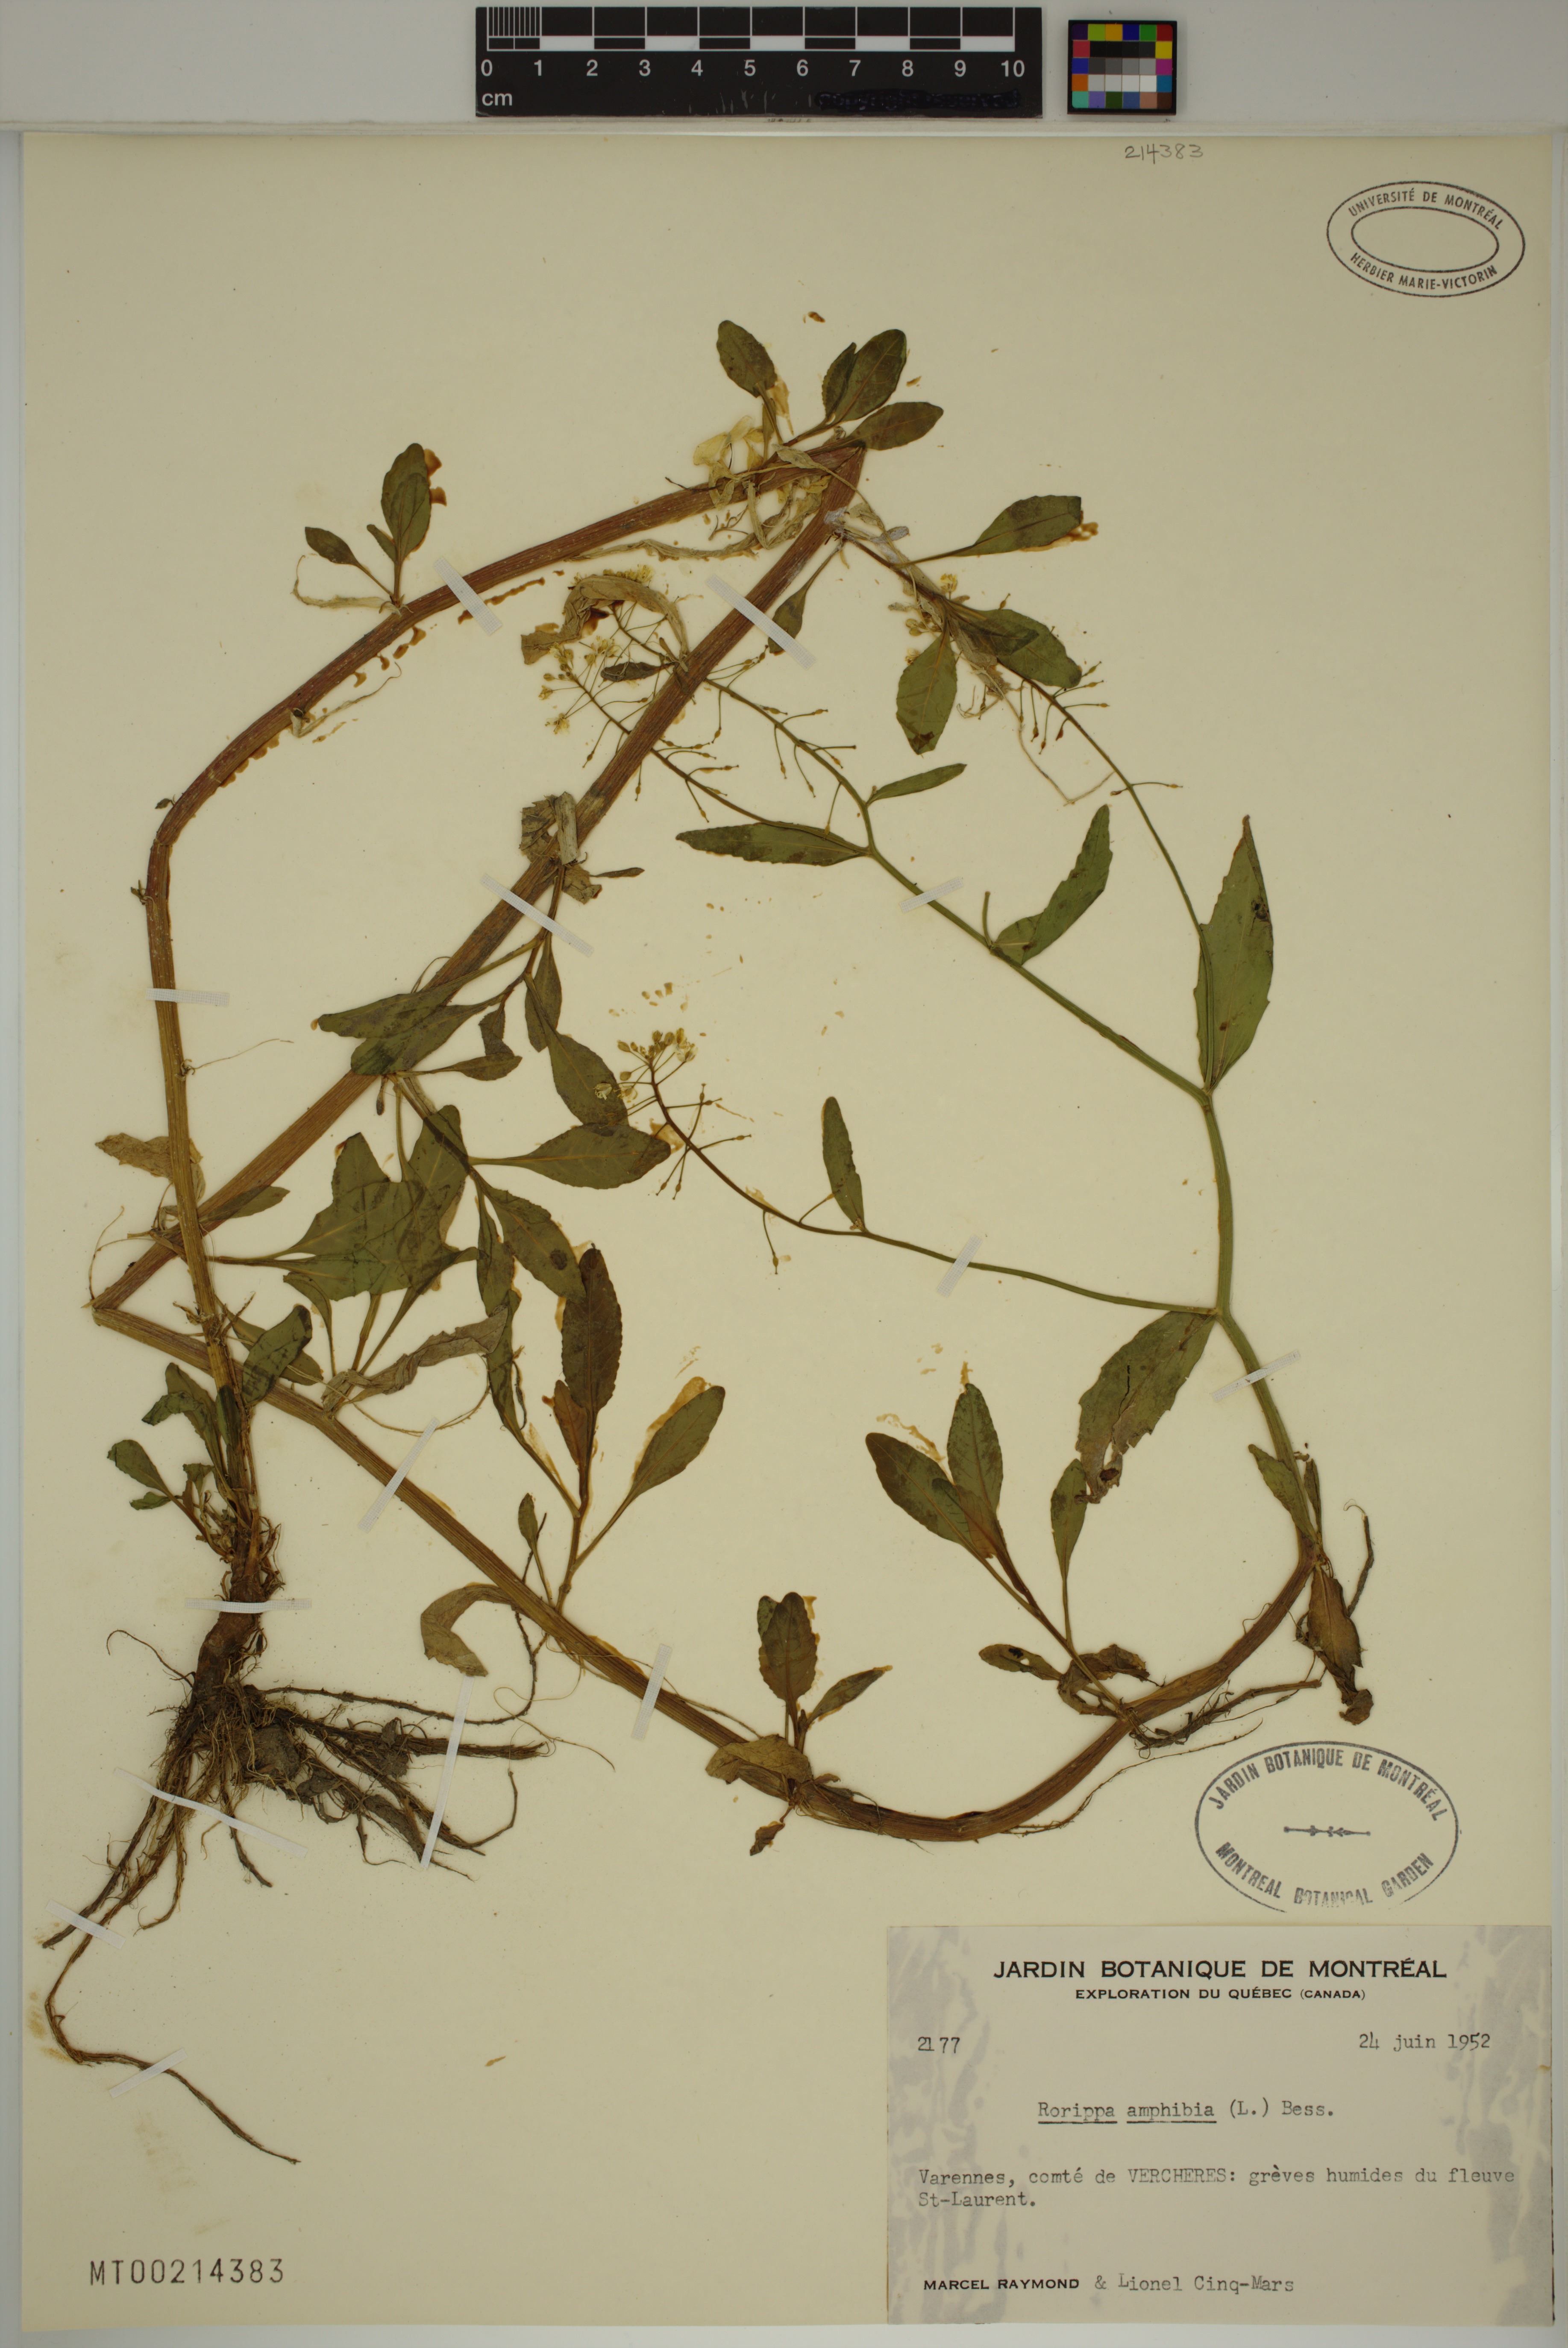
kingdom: Plantae
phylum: Tracheophyta
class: Magnoliopsida
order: Brassicales
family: Brassicaceae
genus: Rorippa
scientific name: Rorippa amphibia
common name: Great yellow-cress
